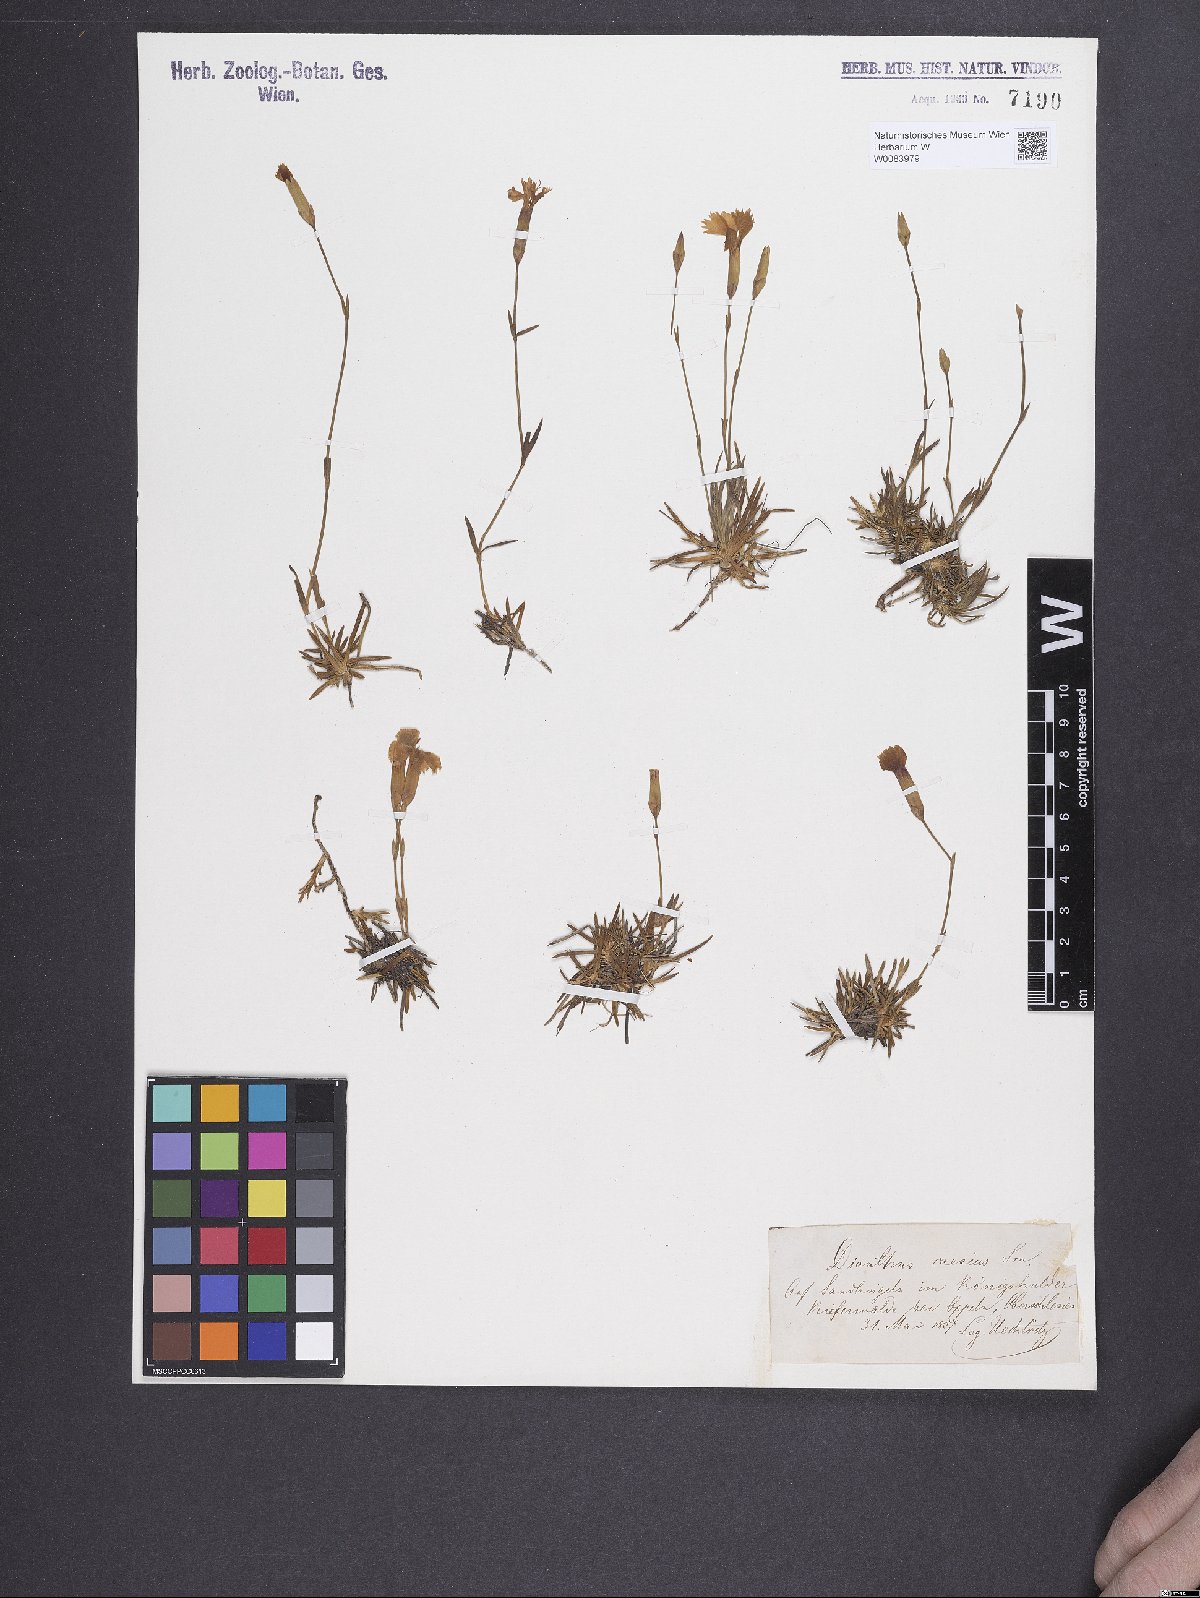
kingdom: Plantae
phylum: Tracheophyta
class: Magnoliopsida
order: Caryophyllales
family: Caryophyllaceae
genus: Dianthus
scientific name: Dianthus gratianopolitanus
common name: Cheddar pink
